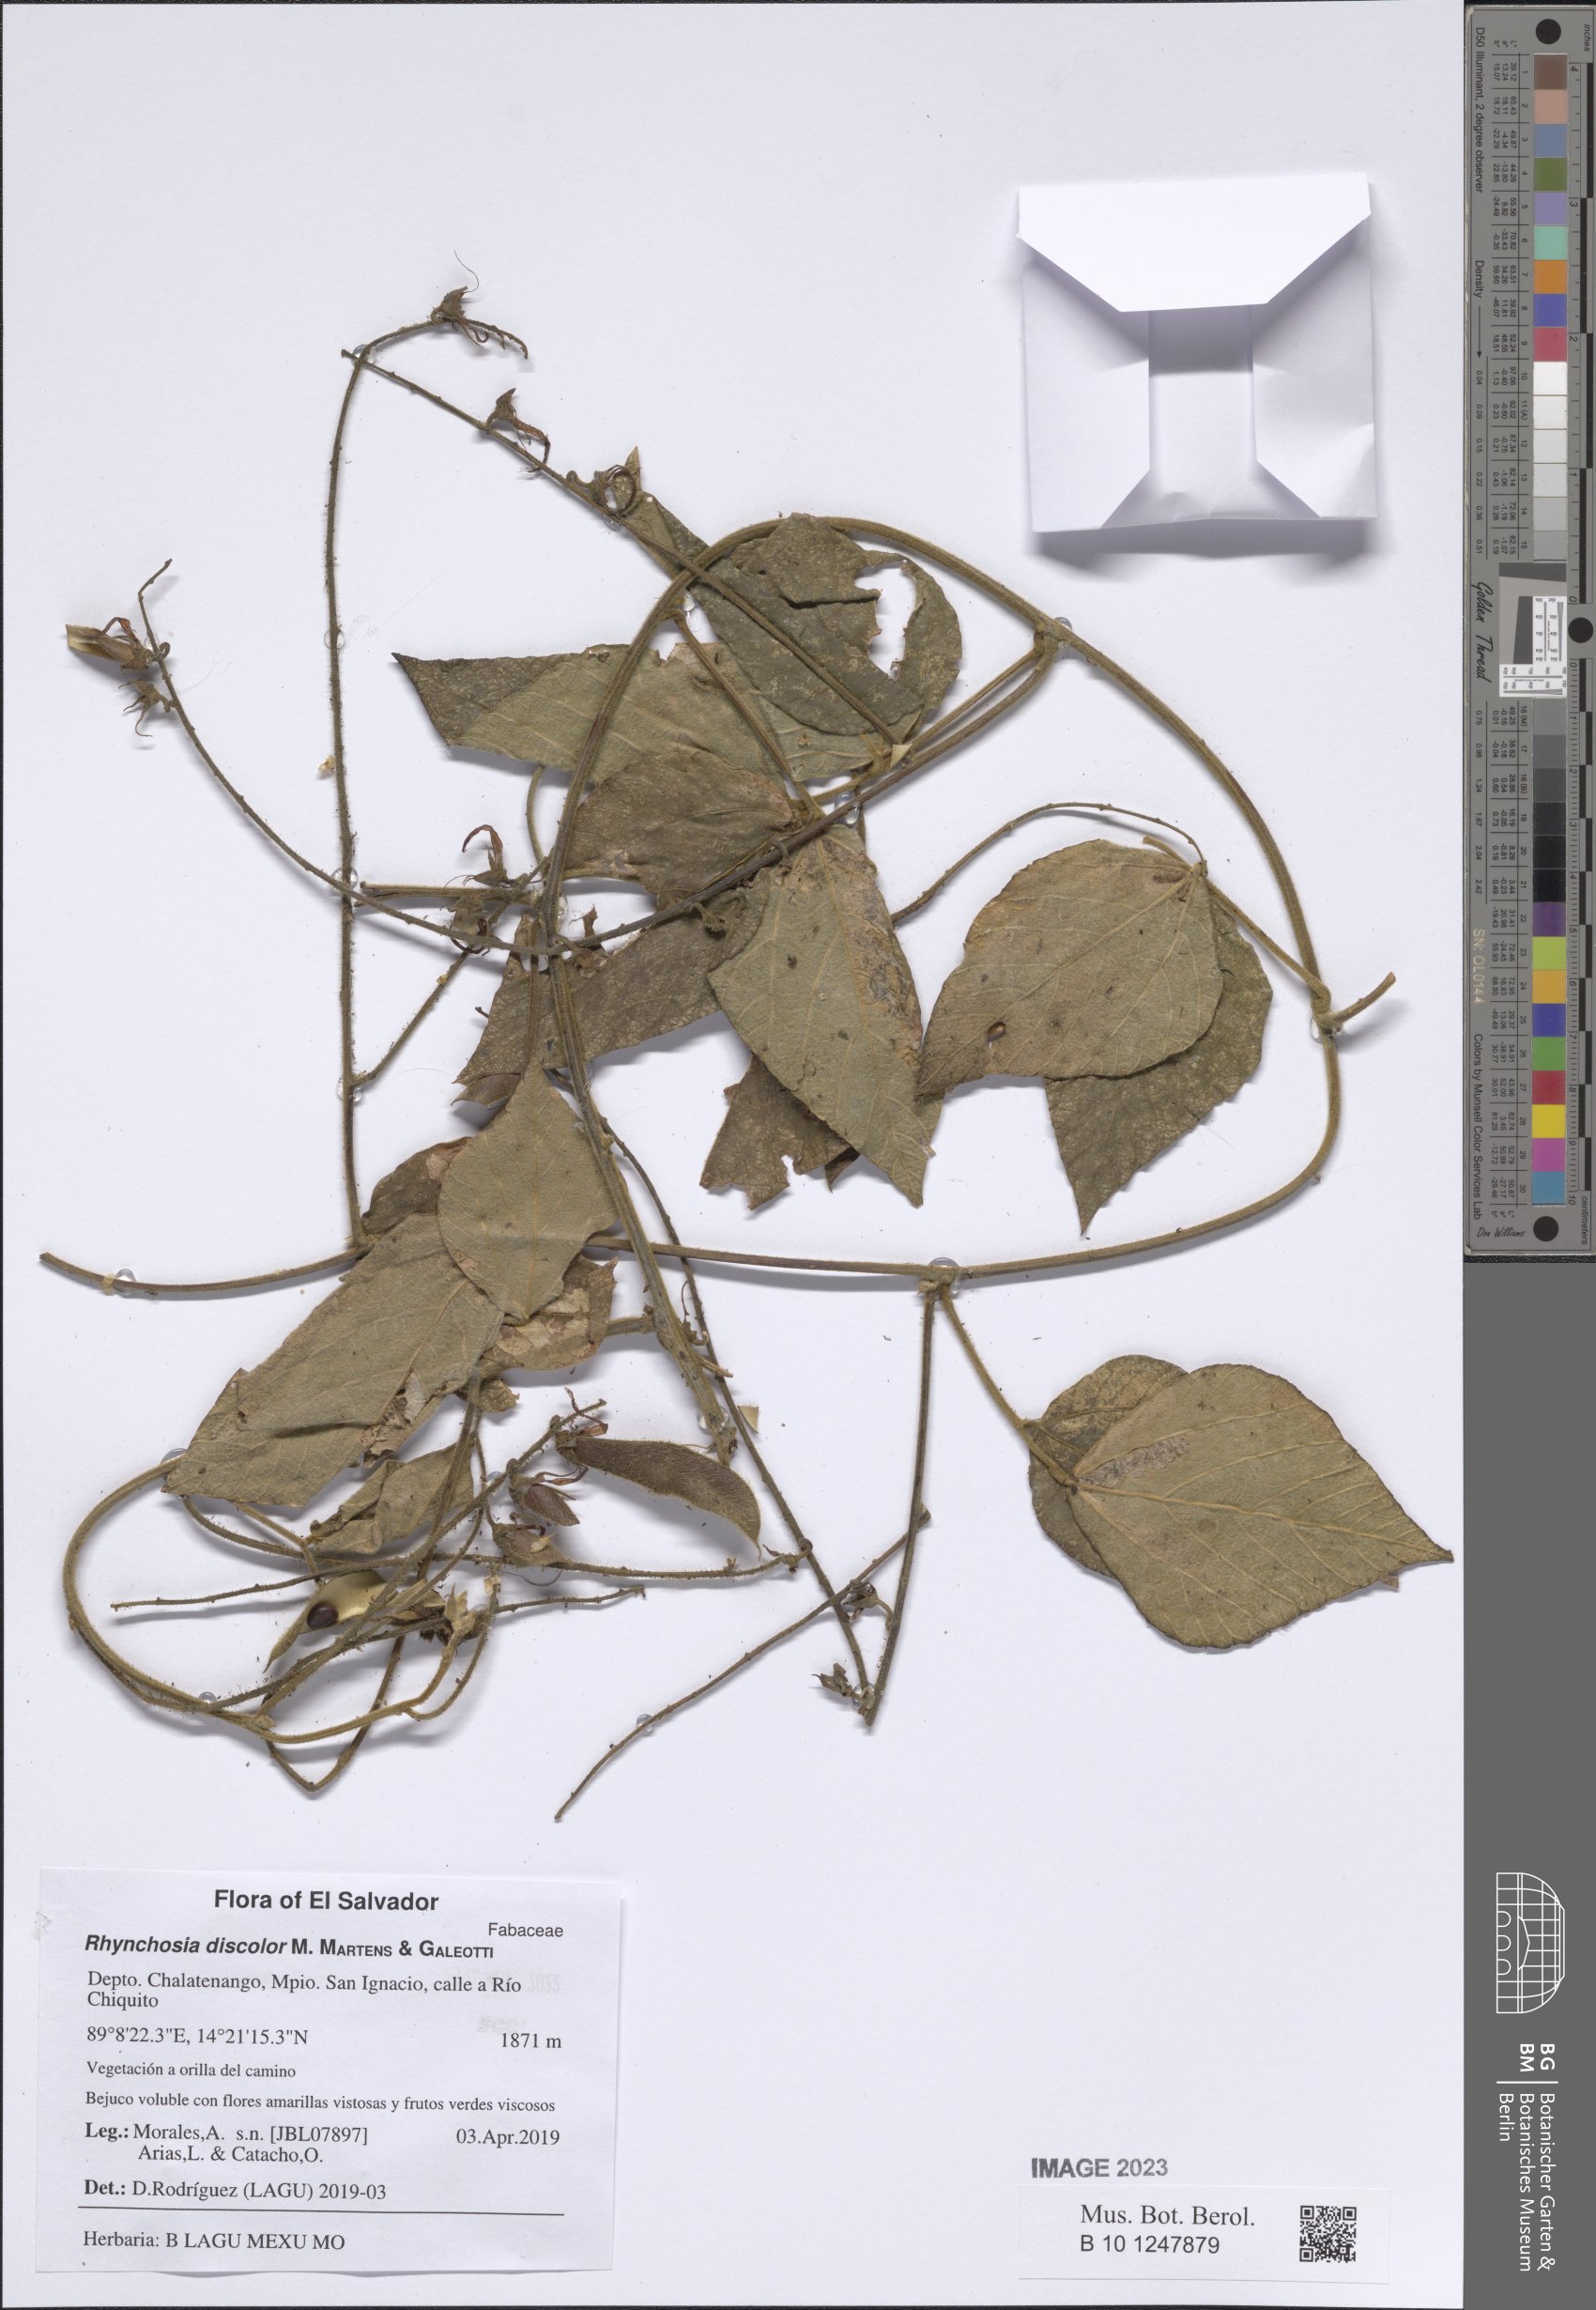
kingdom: Plantae
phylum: Tracheophyta
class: Magnoliopsida
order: Fabales
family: Fabaceae
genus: Rhynchosia
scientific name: Rhynchosia discolor
